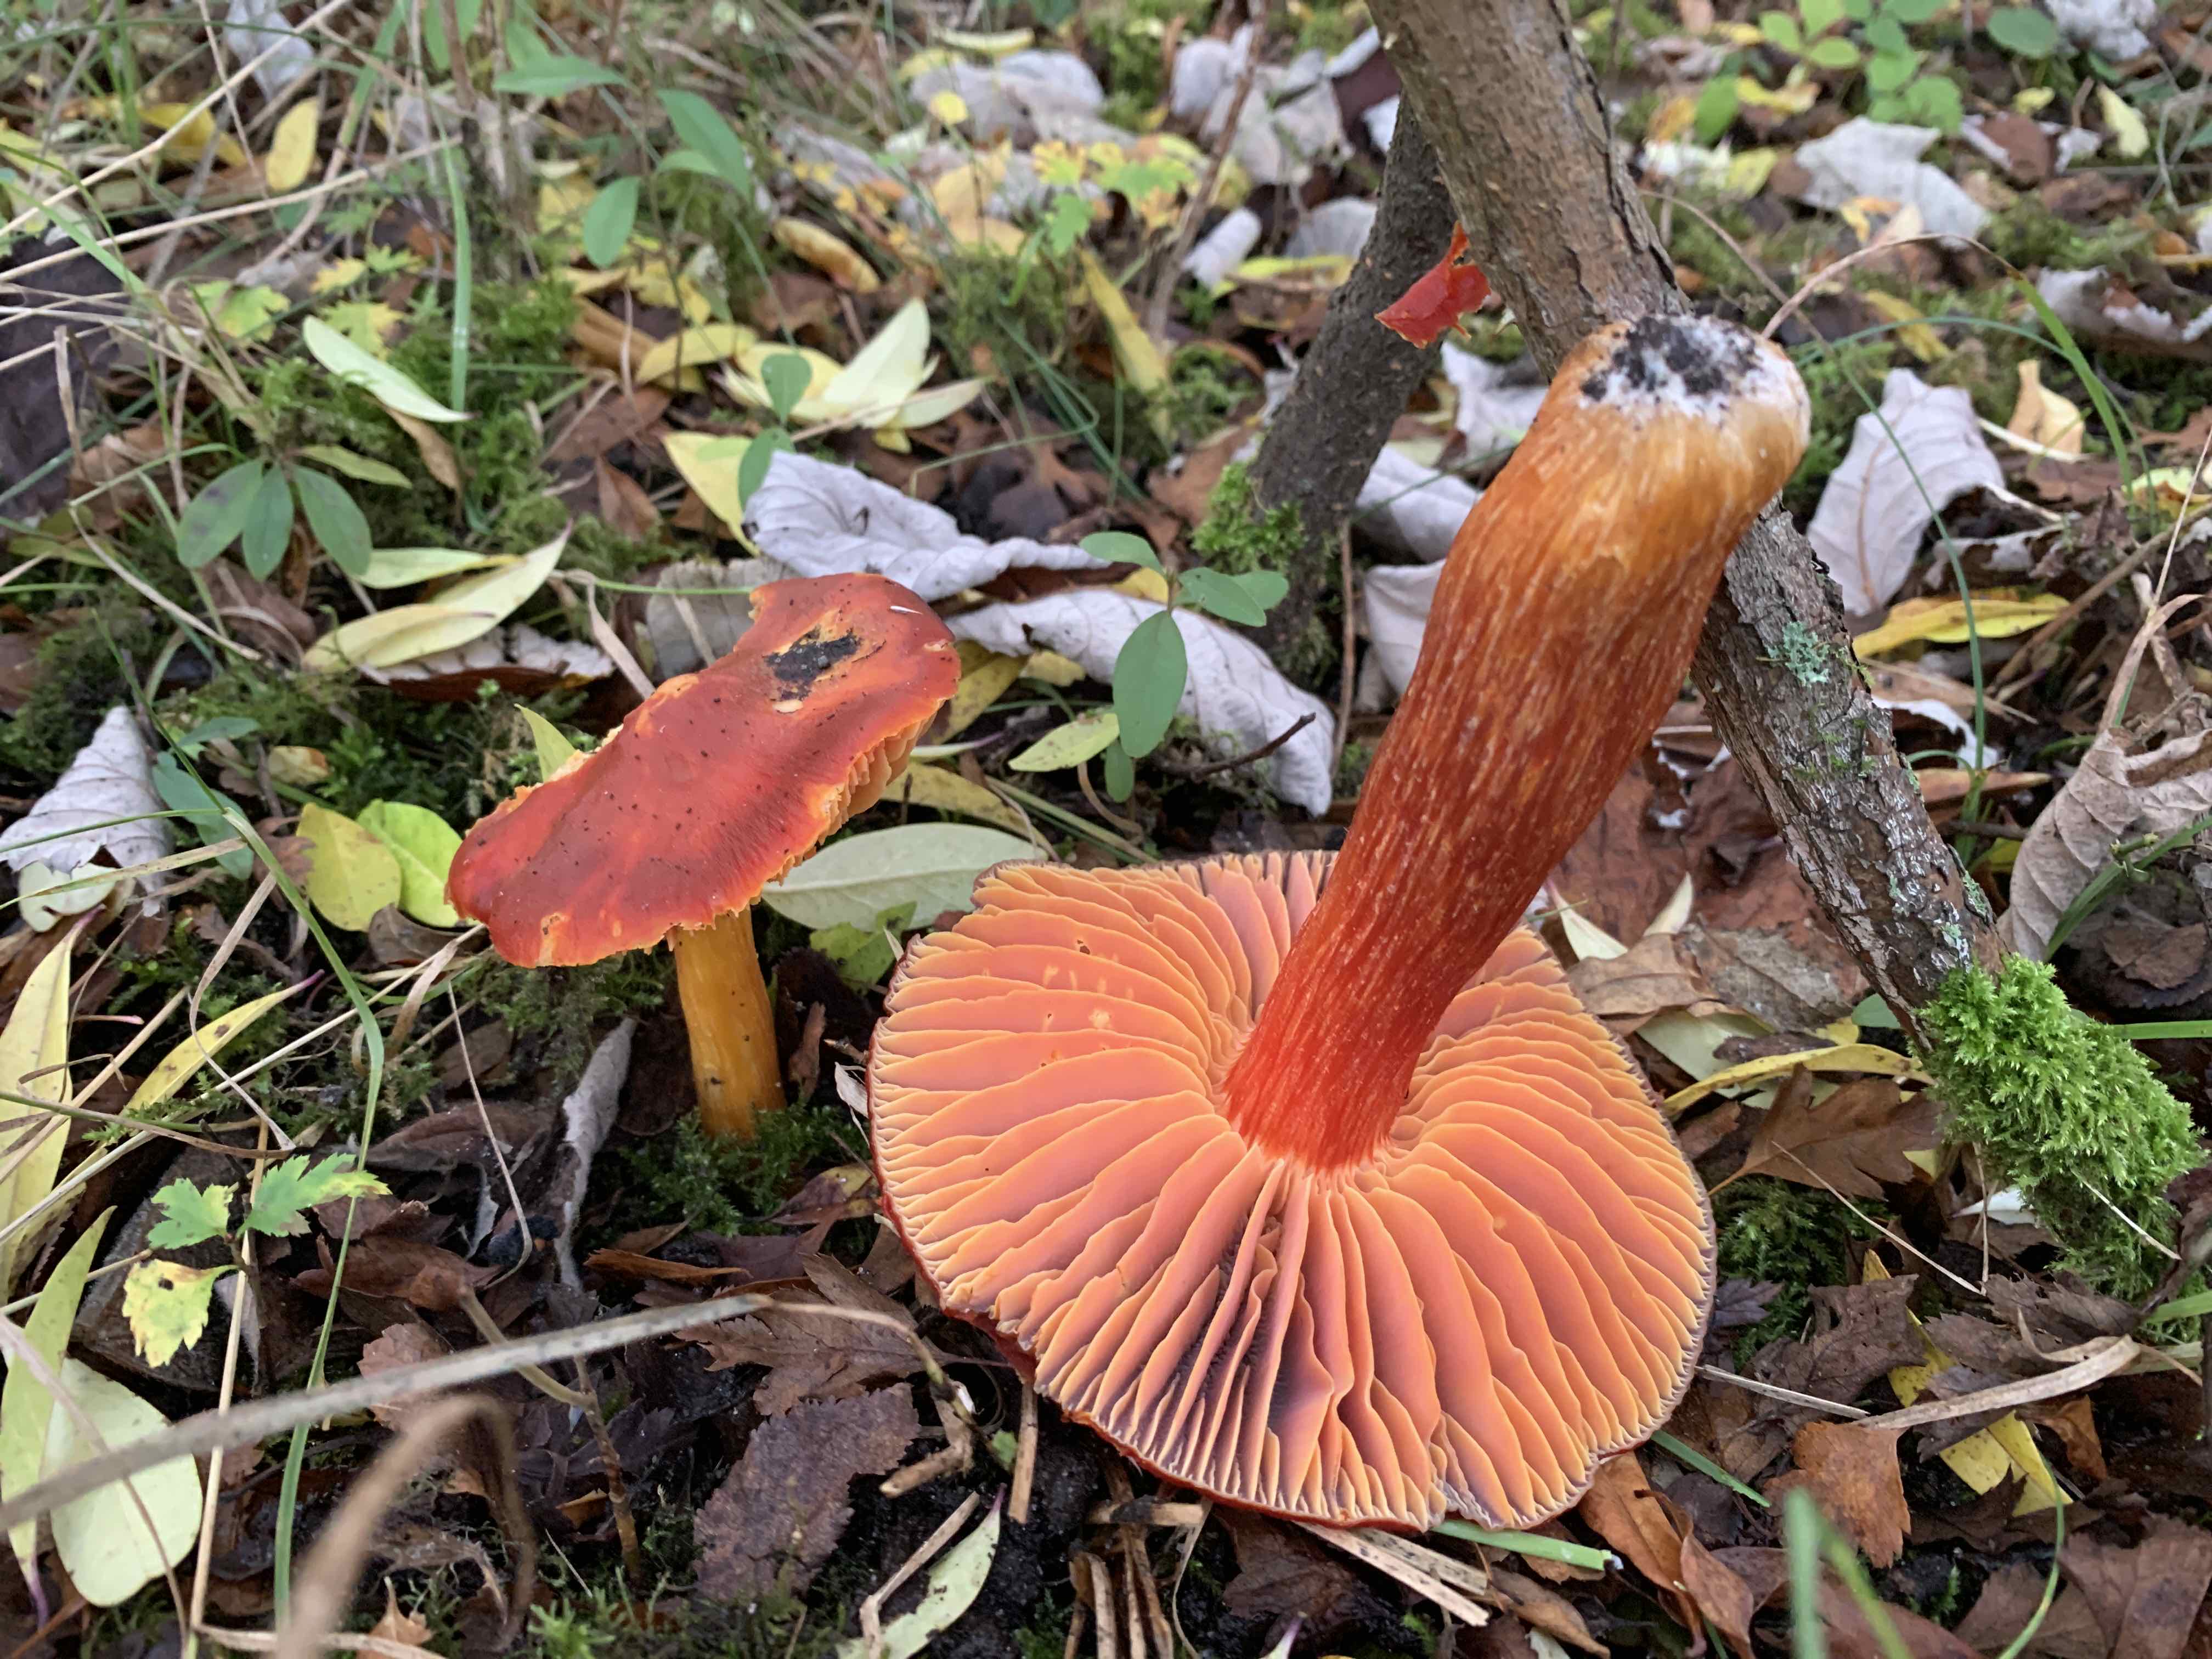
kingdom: Fungi
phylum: Basidiomycota
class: Agaricomycetes
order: Agaricales
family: Hygrophoraceae
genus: Hygrocybe
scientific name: Hygrocybe punicea
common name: skarlagen-vokshat
